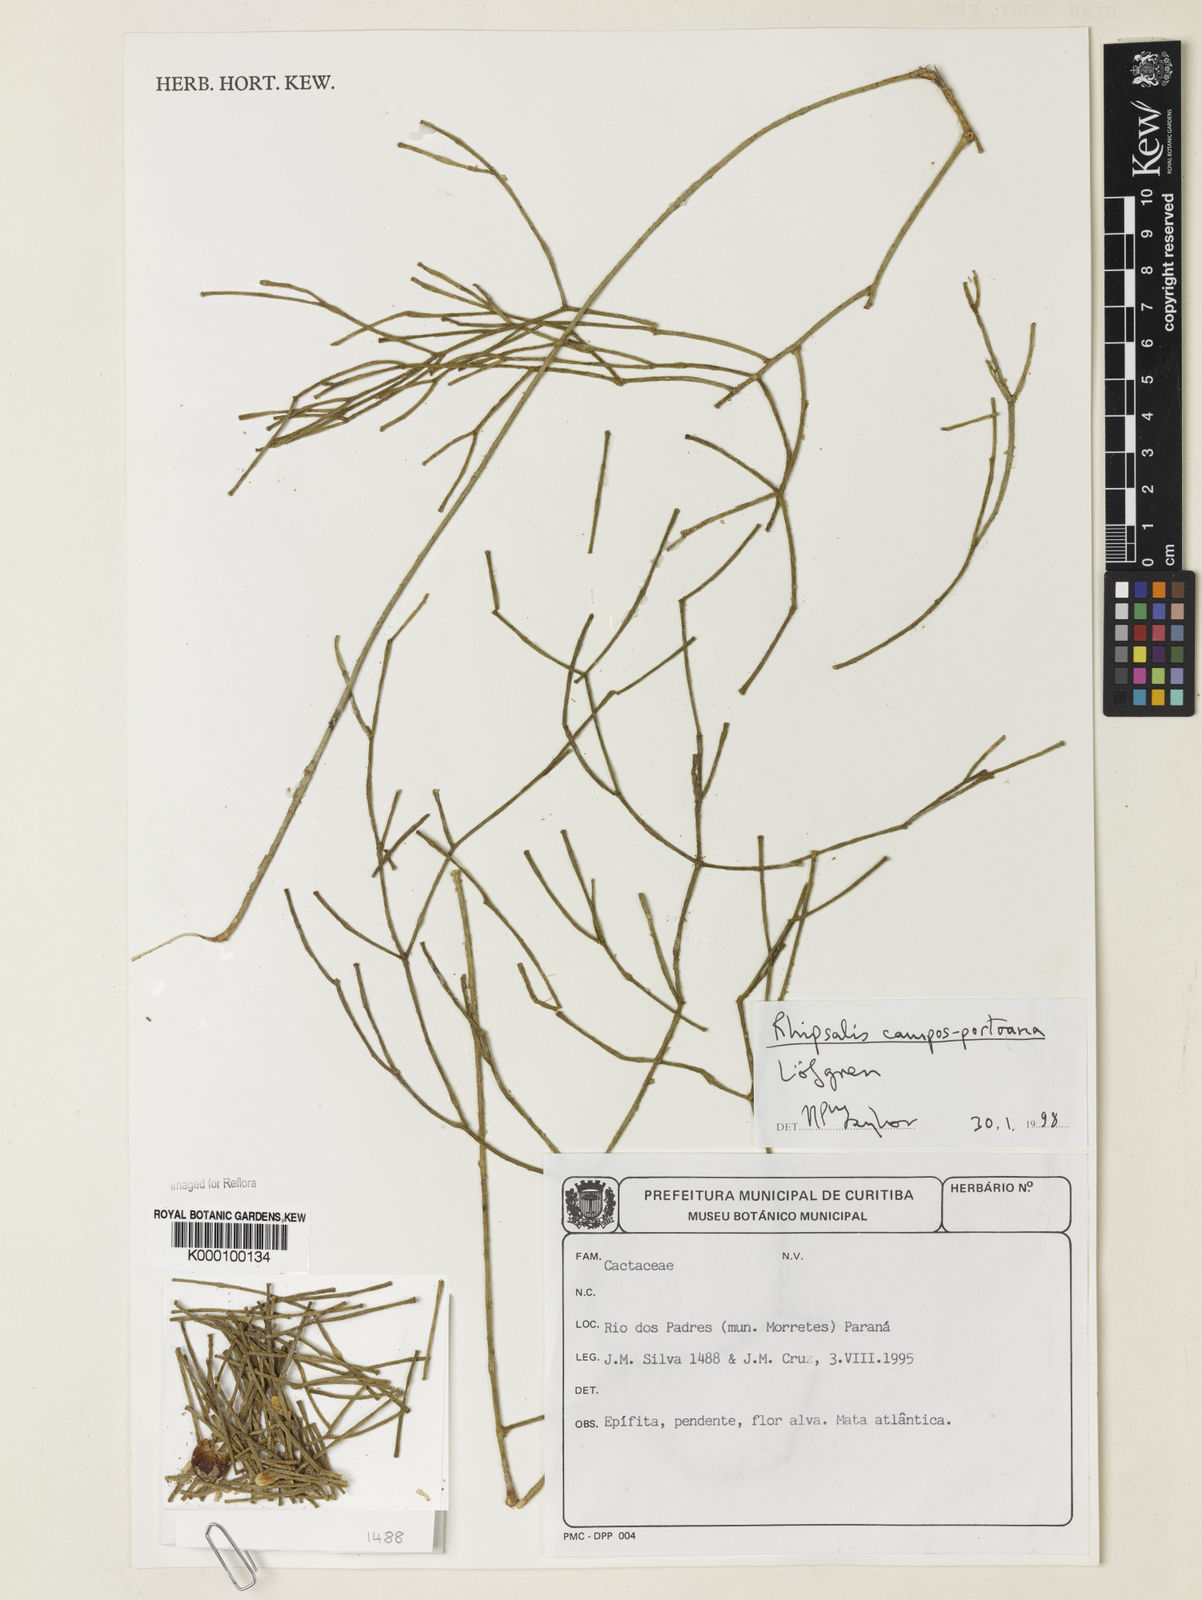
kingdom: Plantae
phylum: Tracheophyta
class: Magnoliopsida
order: Caryophyllales
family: Cactaceae
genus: Rhipsalis
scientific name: Rhipsalis campos-portoana
